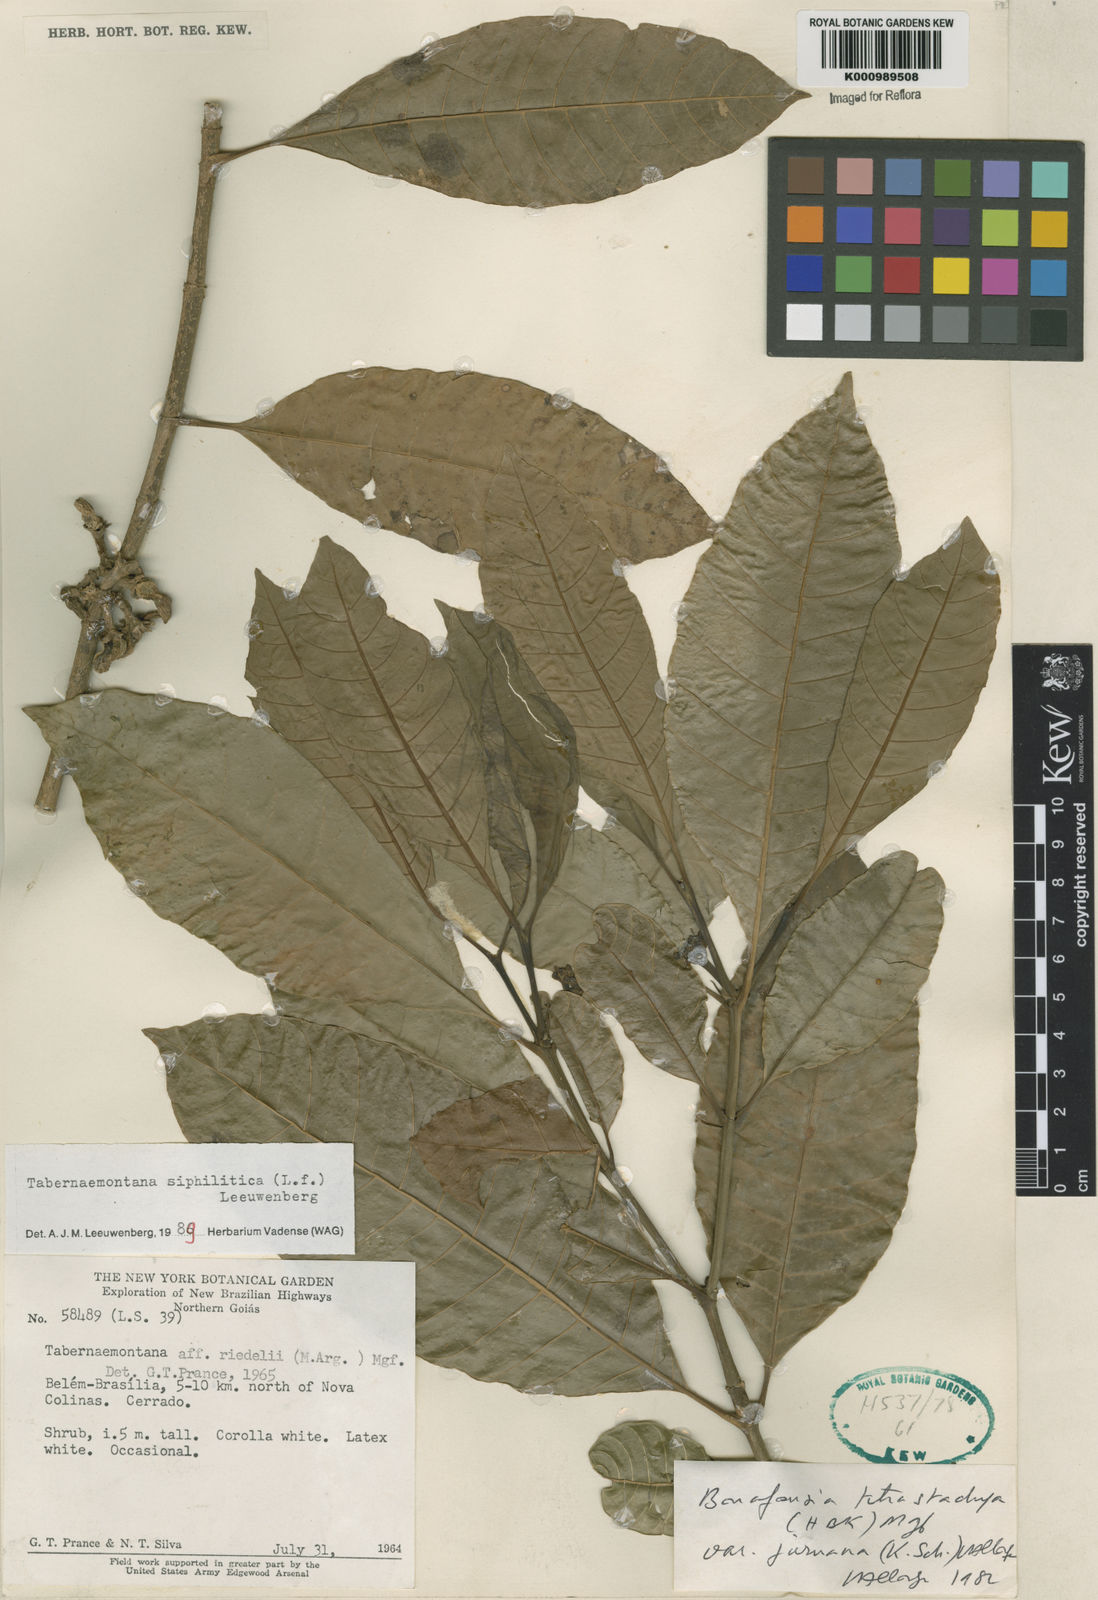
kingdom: Plantae
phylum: Tracheophyta
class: Magnoliopsida
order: Gentianales
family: Apocynaceae
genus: Tabernaemontana
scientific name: Tabernaemontana siphilitica
